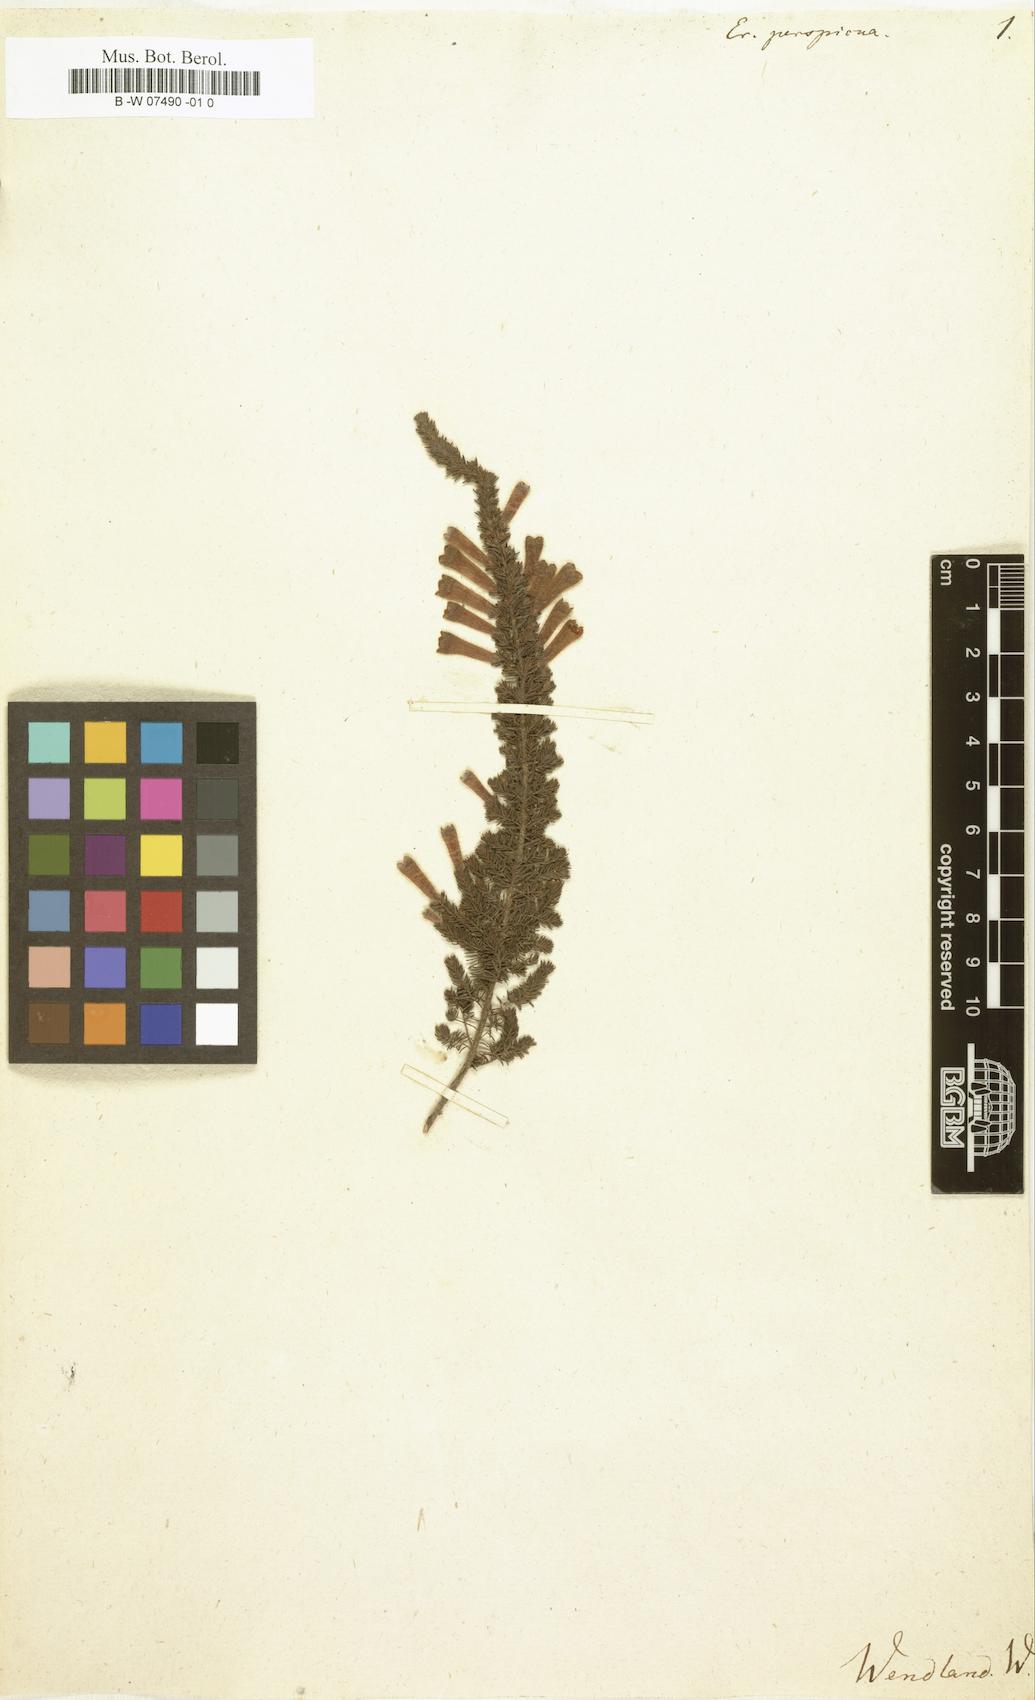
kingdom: Plantae
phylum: Tracheophyta
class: Magnoliopsida
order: Ericales
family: Ericaceae
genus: Erica
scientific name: Erica perspicua
